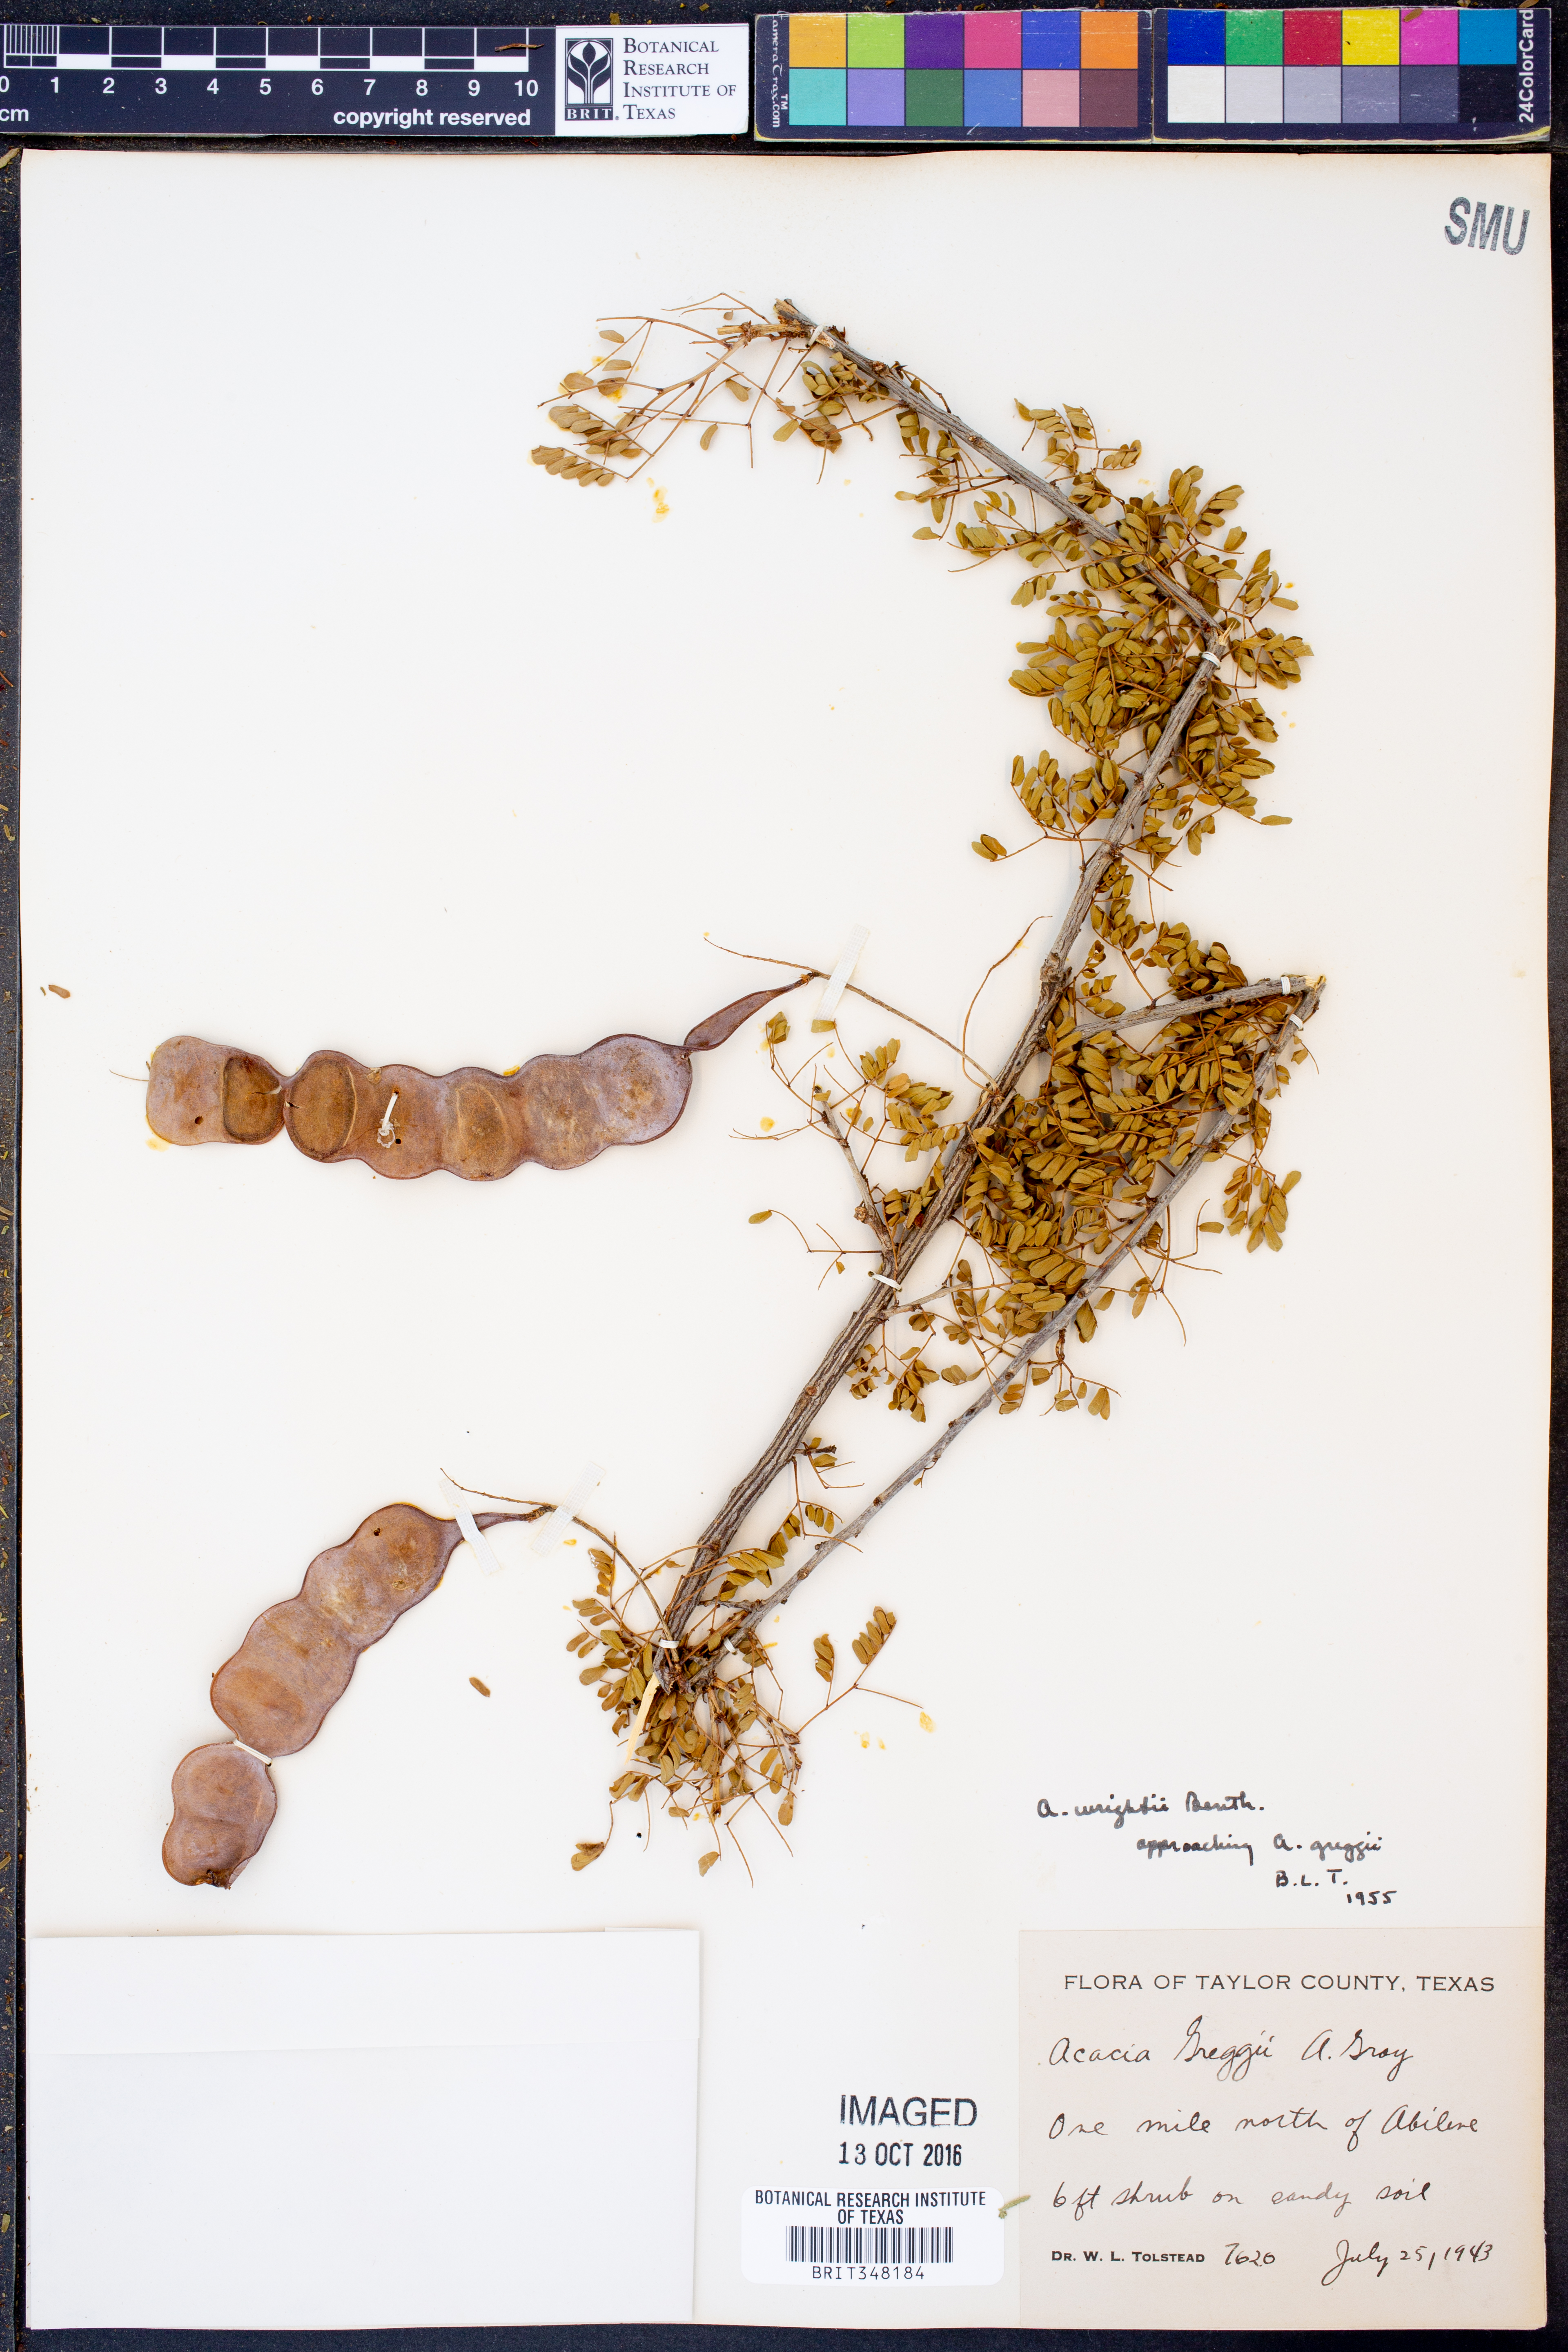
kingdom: Plantae
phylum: Tracheophyta
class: Magnoliopsida
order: Fabales
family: Fabaceae
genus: Senegalia
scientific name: Senegalia wrightii
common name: Texas cat's-claw
